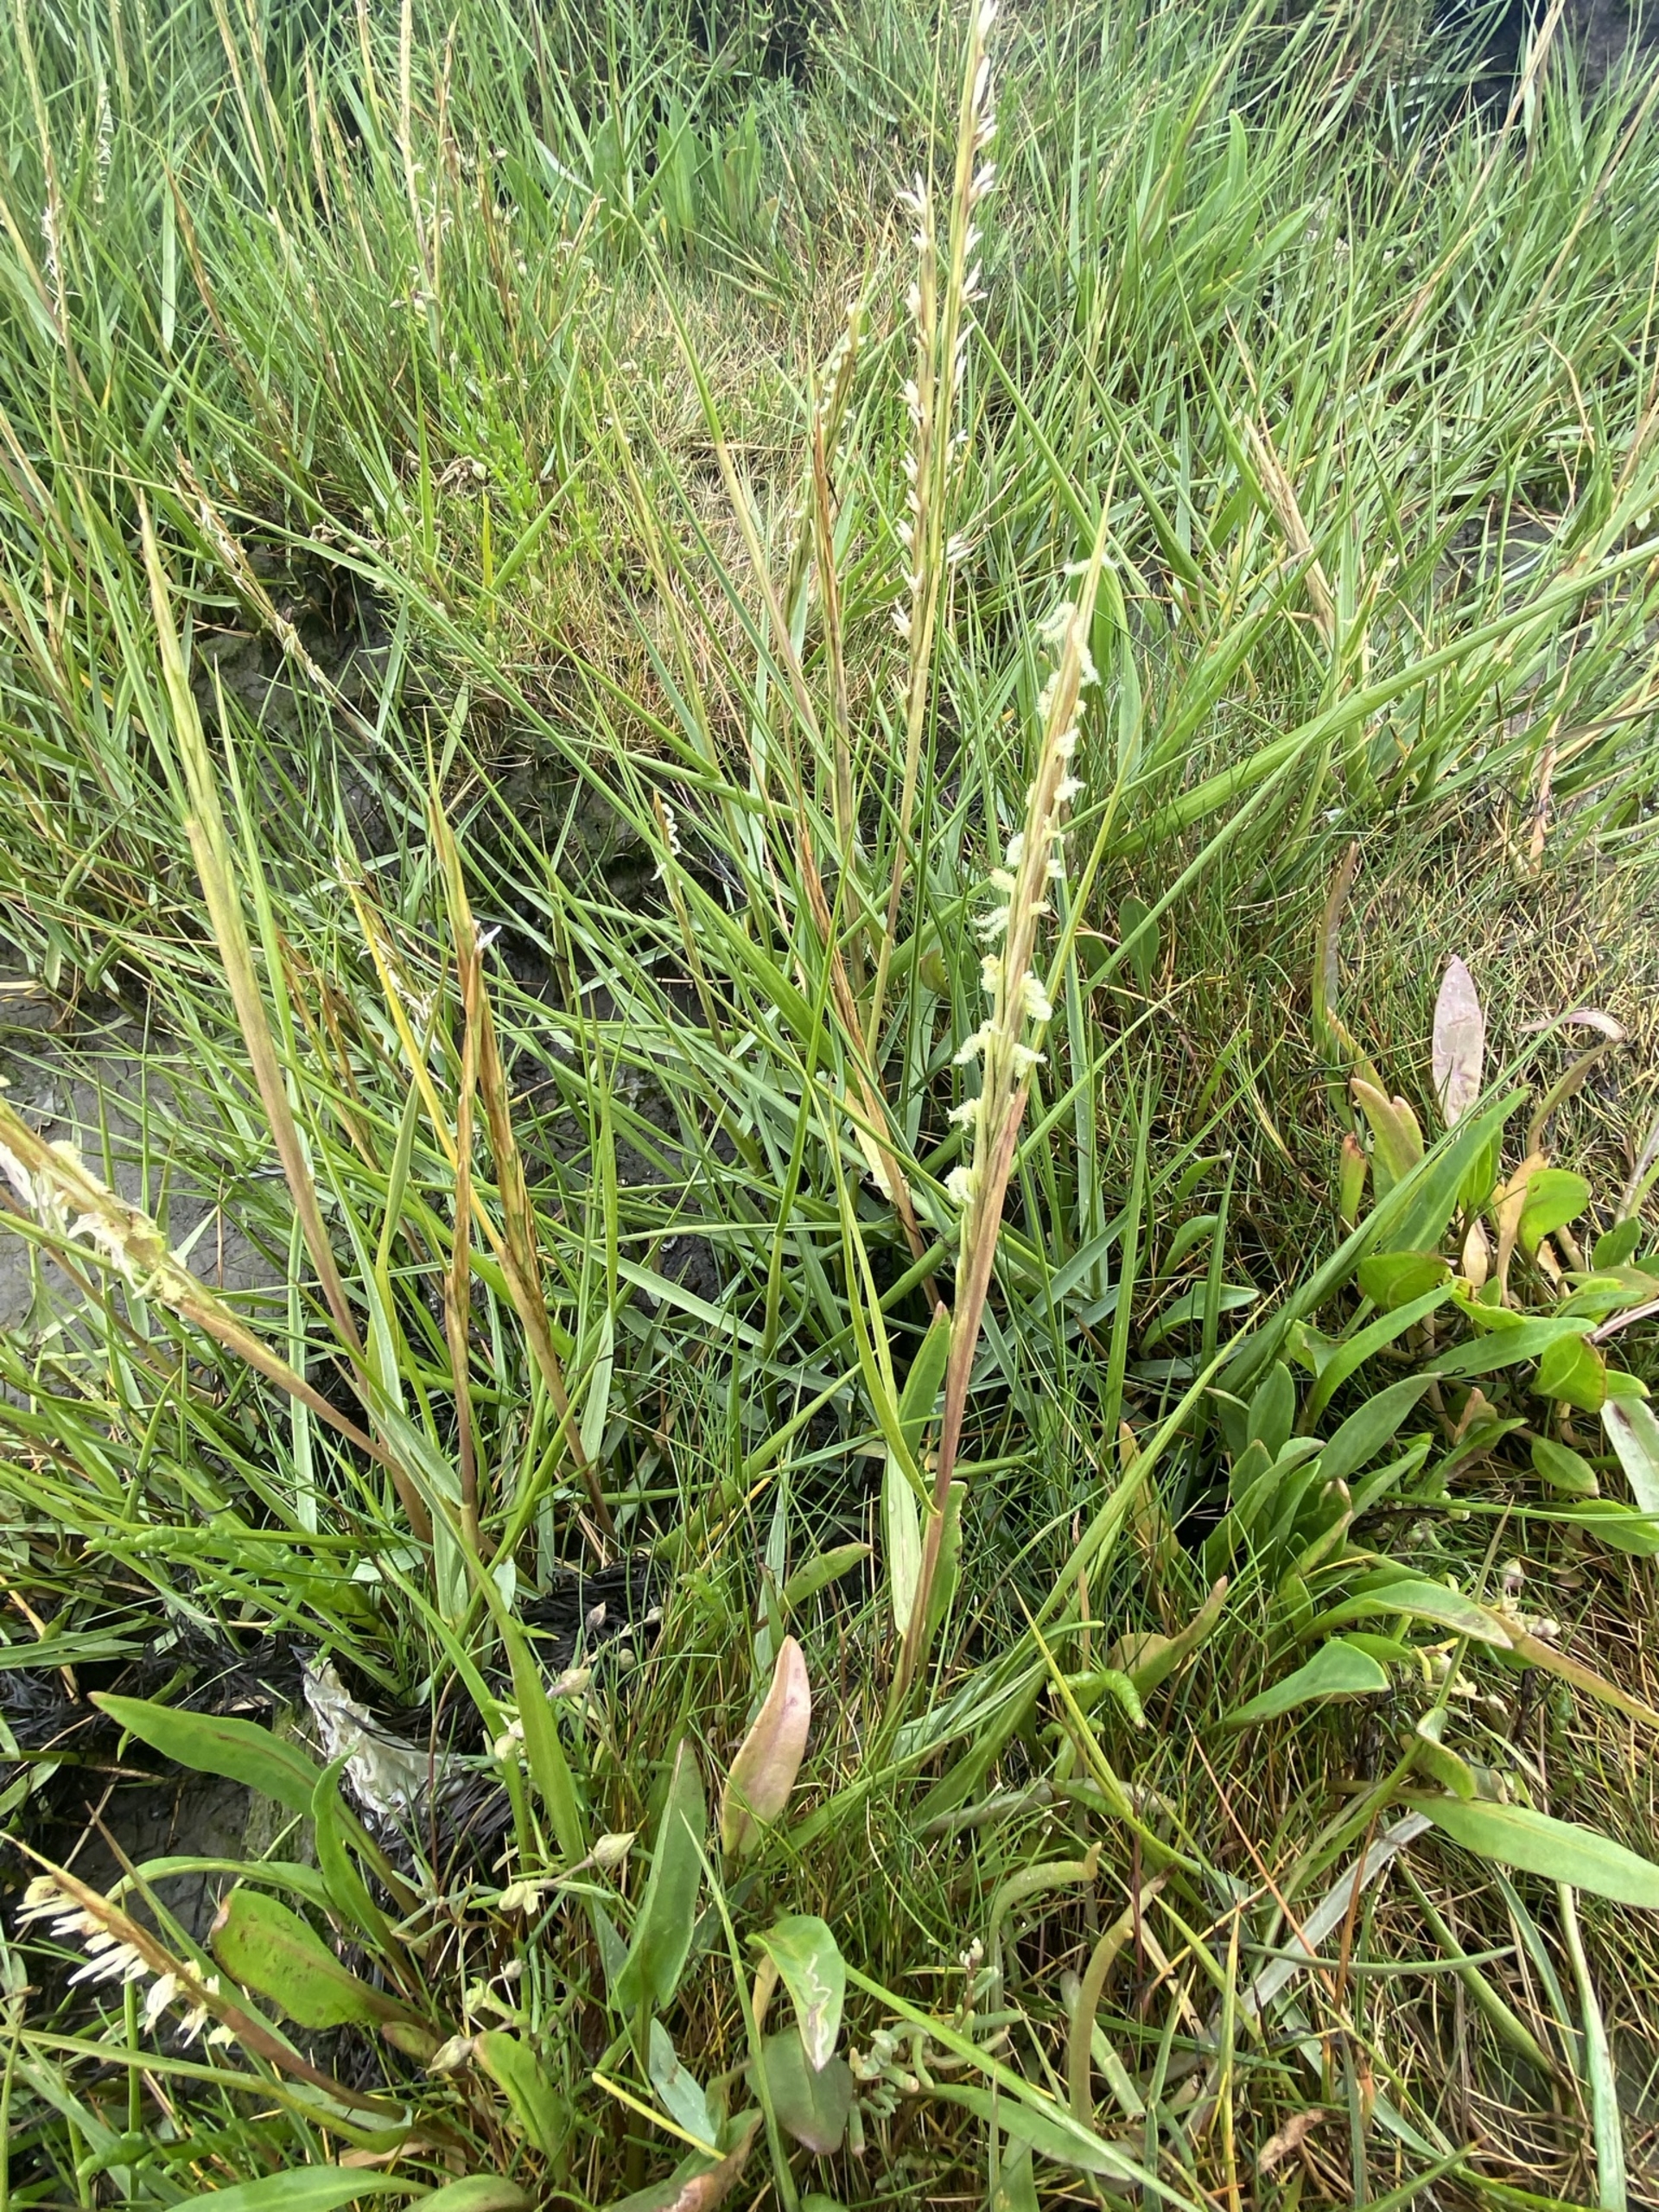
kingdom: Plantae
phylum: Tracheophyta
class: Liliopsida
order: Poales
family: Poaceae
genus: Sporobolus
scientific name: Sporobolus anglicus
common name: Engelsk vadegræs
